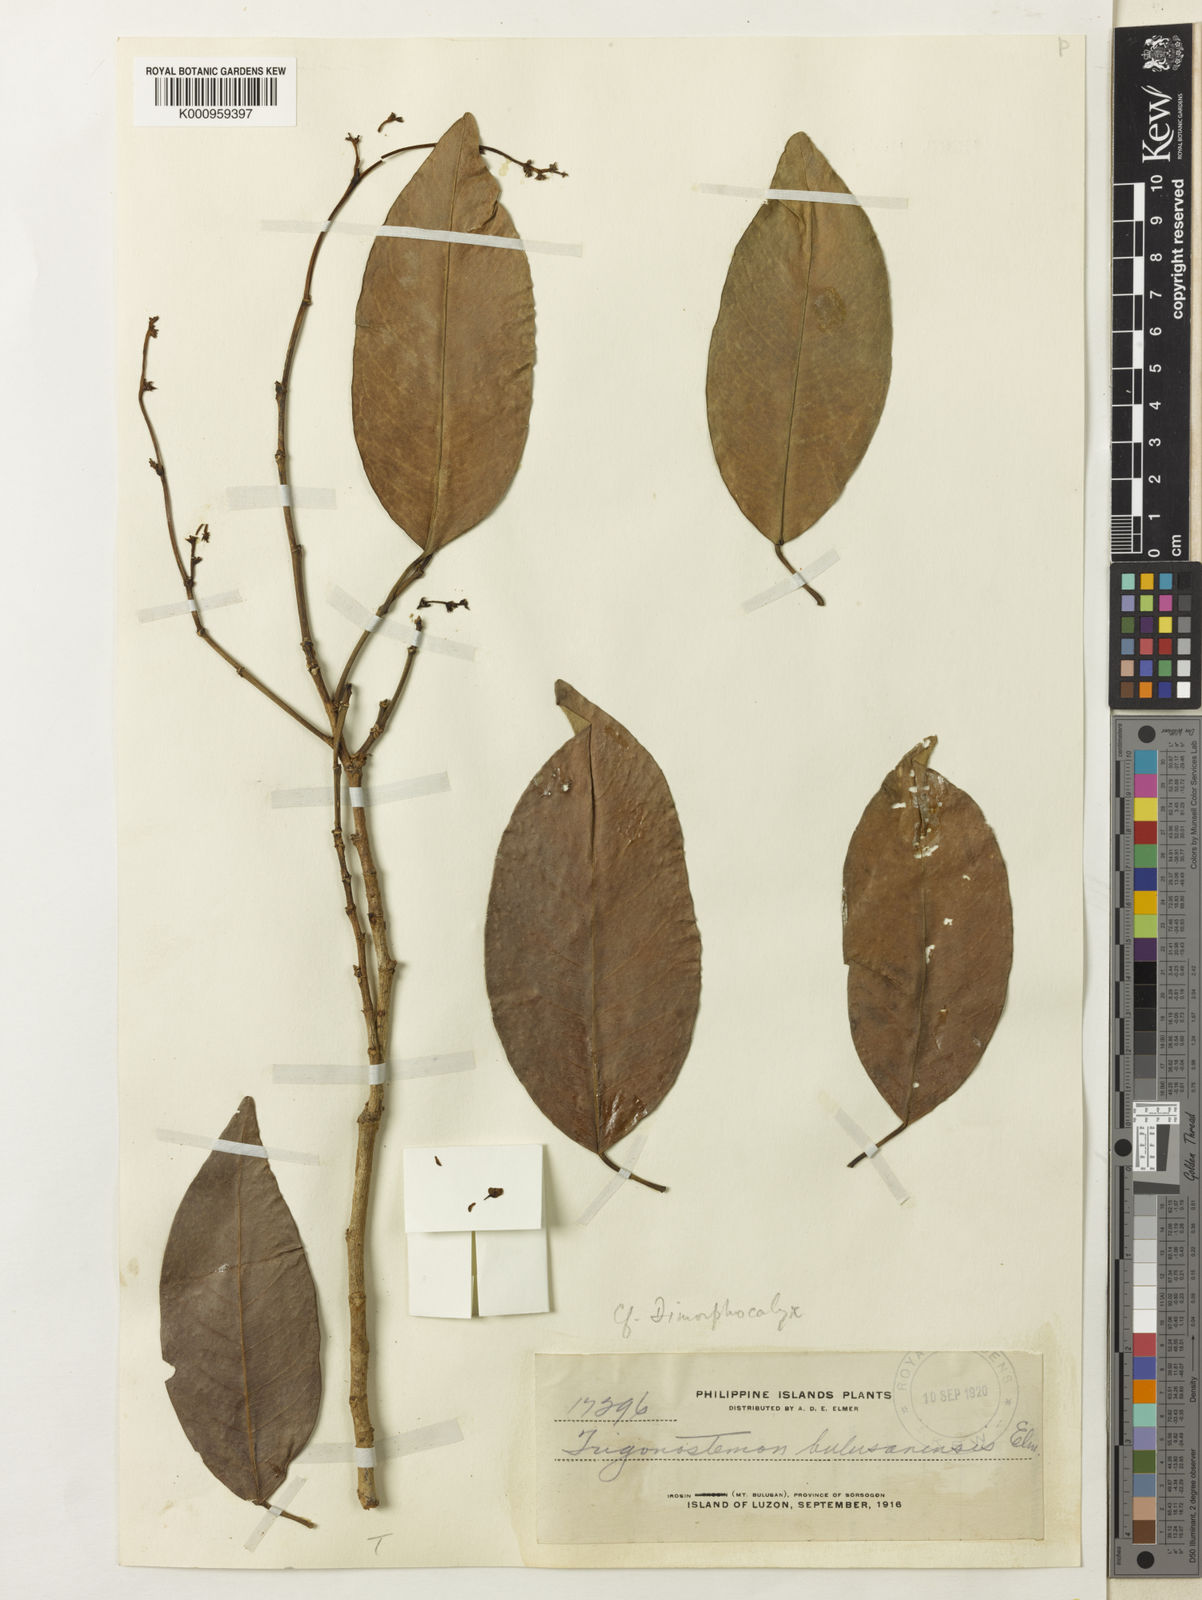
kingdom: Plantae
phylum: Tracheophyta
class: Magnoliopsida
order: Malpighiales
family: Euphorbiaceae
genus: Tritaxis
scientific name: Tritaxis malayana
